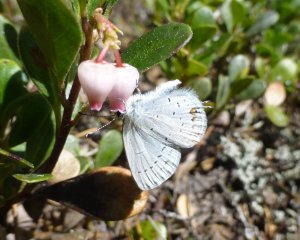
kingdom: Animalia
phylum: Arthropoda
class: Insecta
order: Lepidoptera
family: Lycaenidae
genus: Elkalyce
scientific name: Elkalyce amyntula
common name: Western Tailed-Blue
